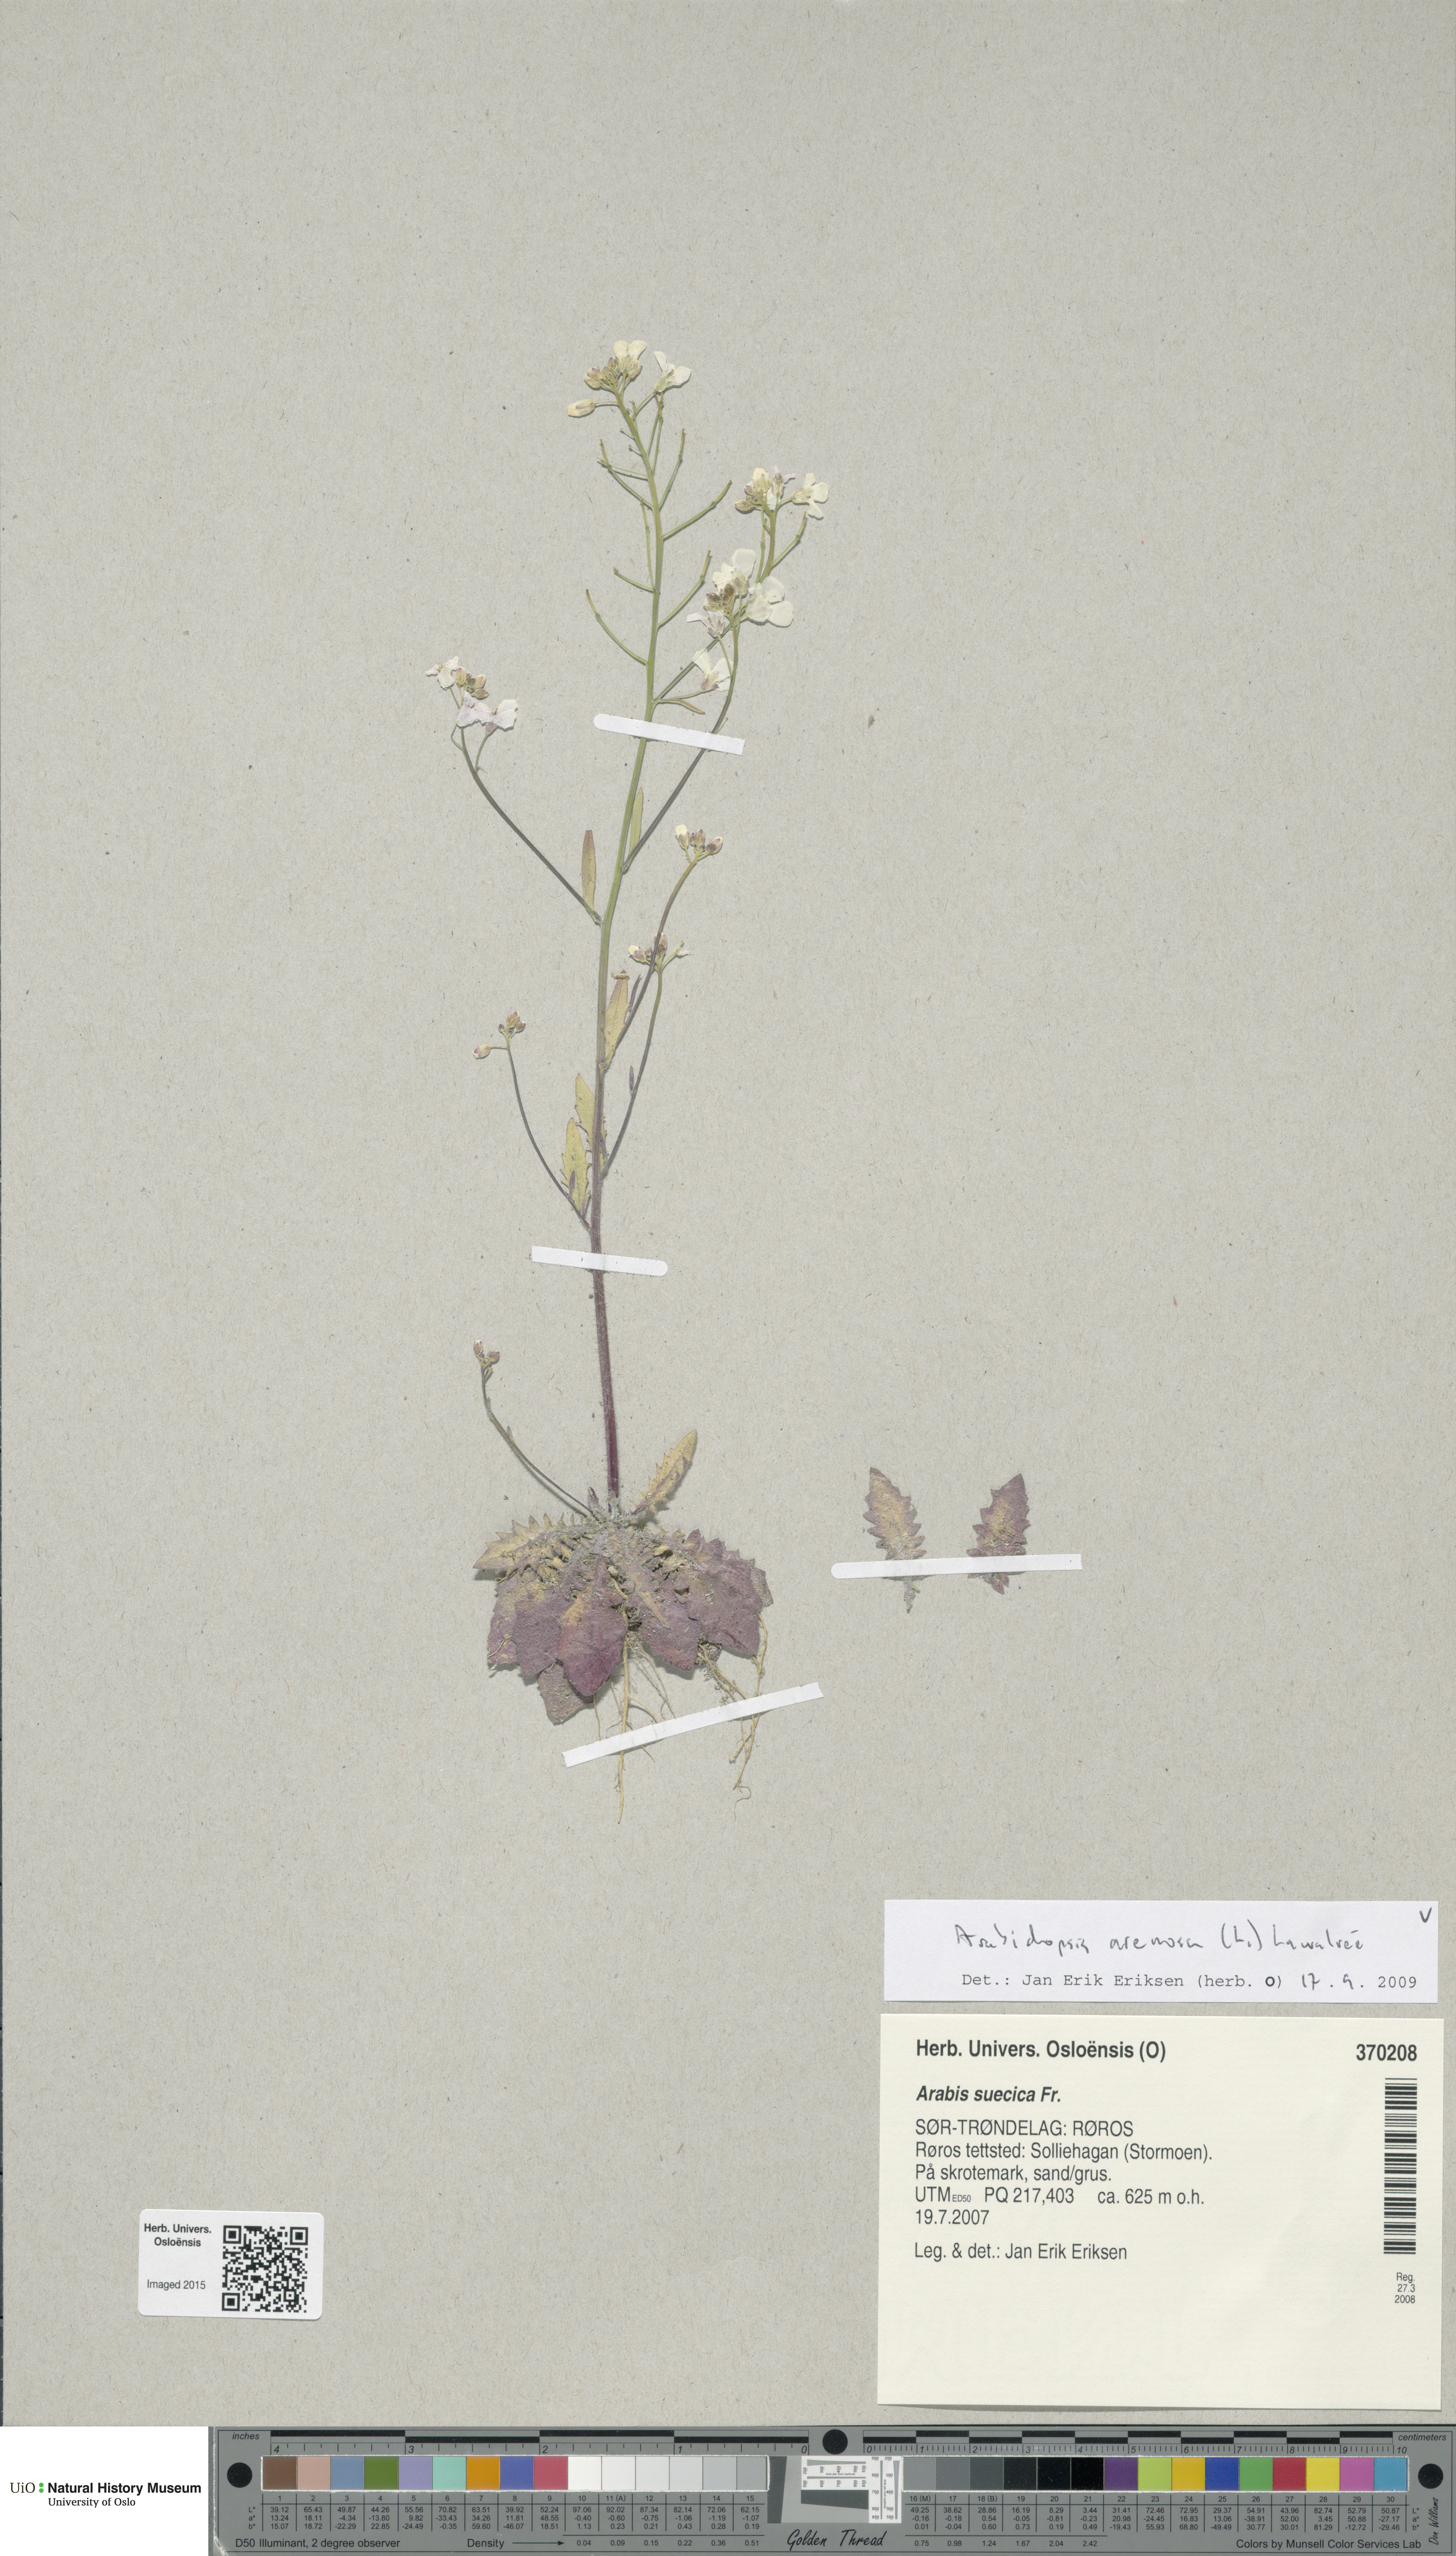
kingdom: Plantae
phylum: Tracheophyta
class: Magnoliopsida
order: Brassicales
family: Brassicaceae
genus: Arabidopsis
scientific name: Arabidopsis arenosa
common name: Sand rock-cress
